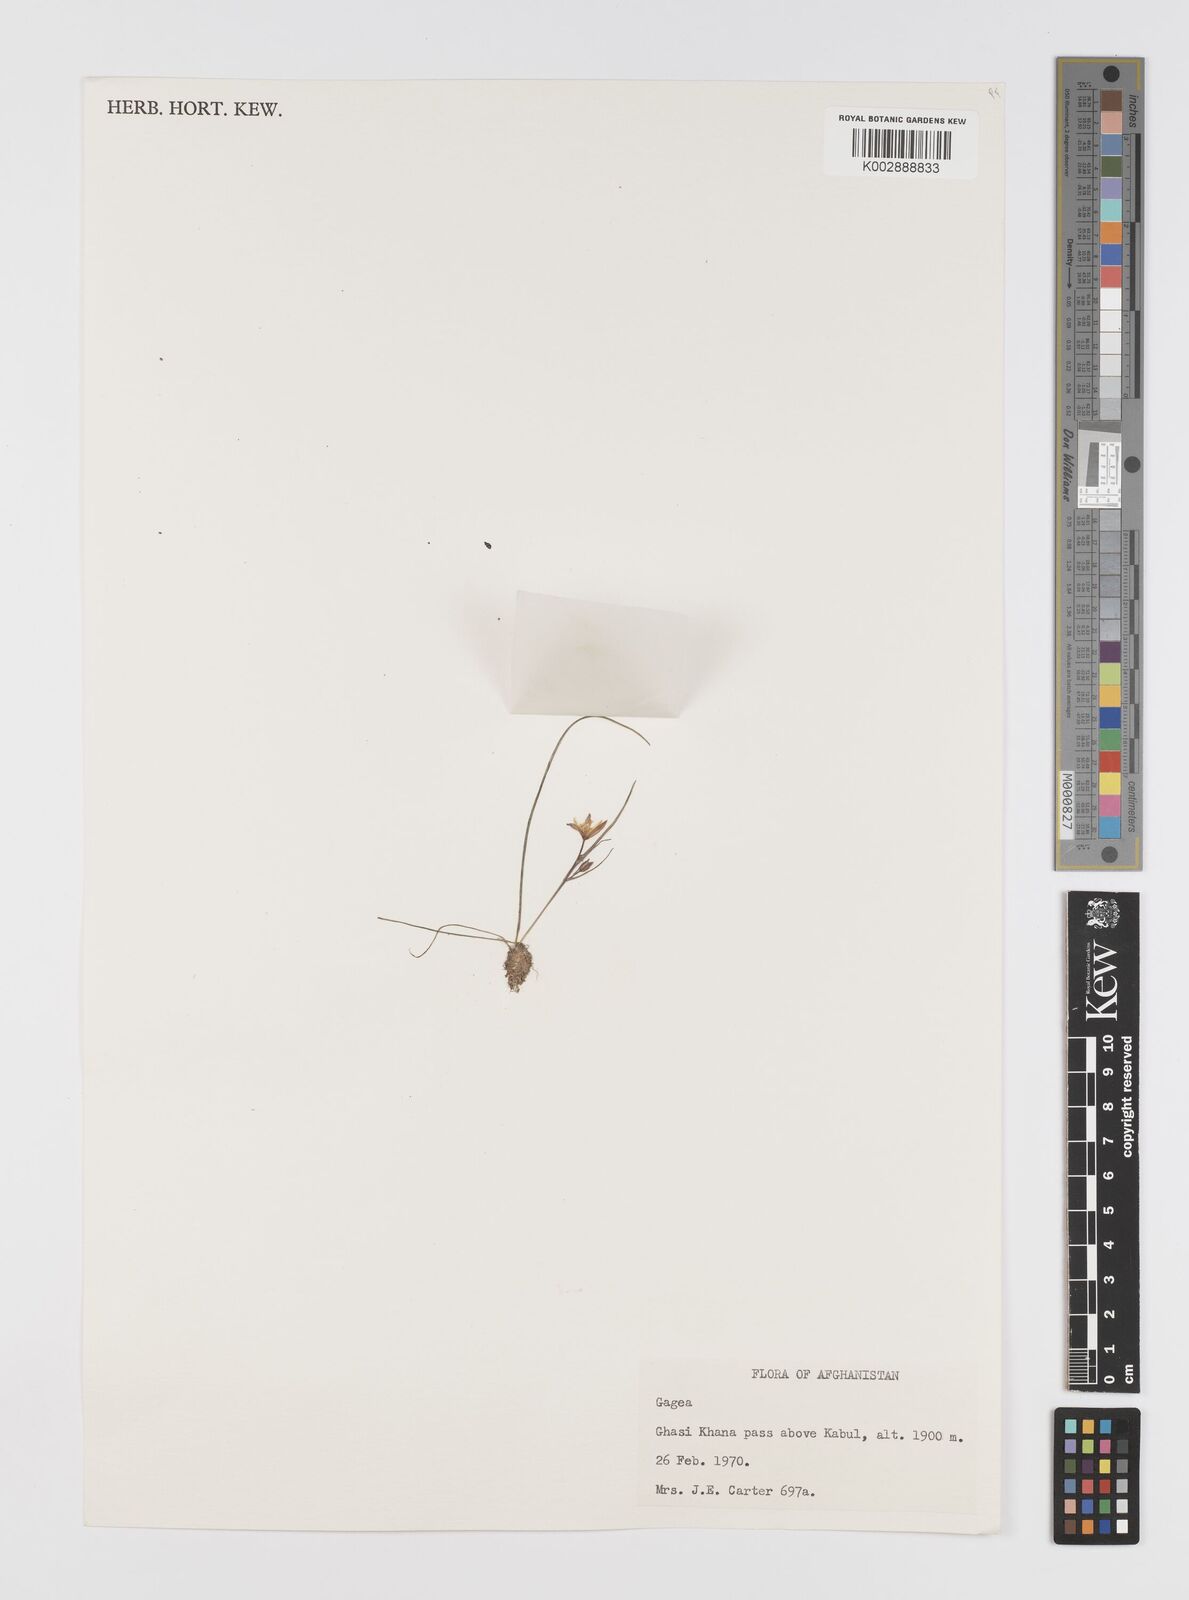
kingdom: Plantae
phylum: Tracheophyta
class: Liliopsida
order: Liliales
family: Liliaceae
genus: Gagea
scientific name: Gagea
